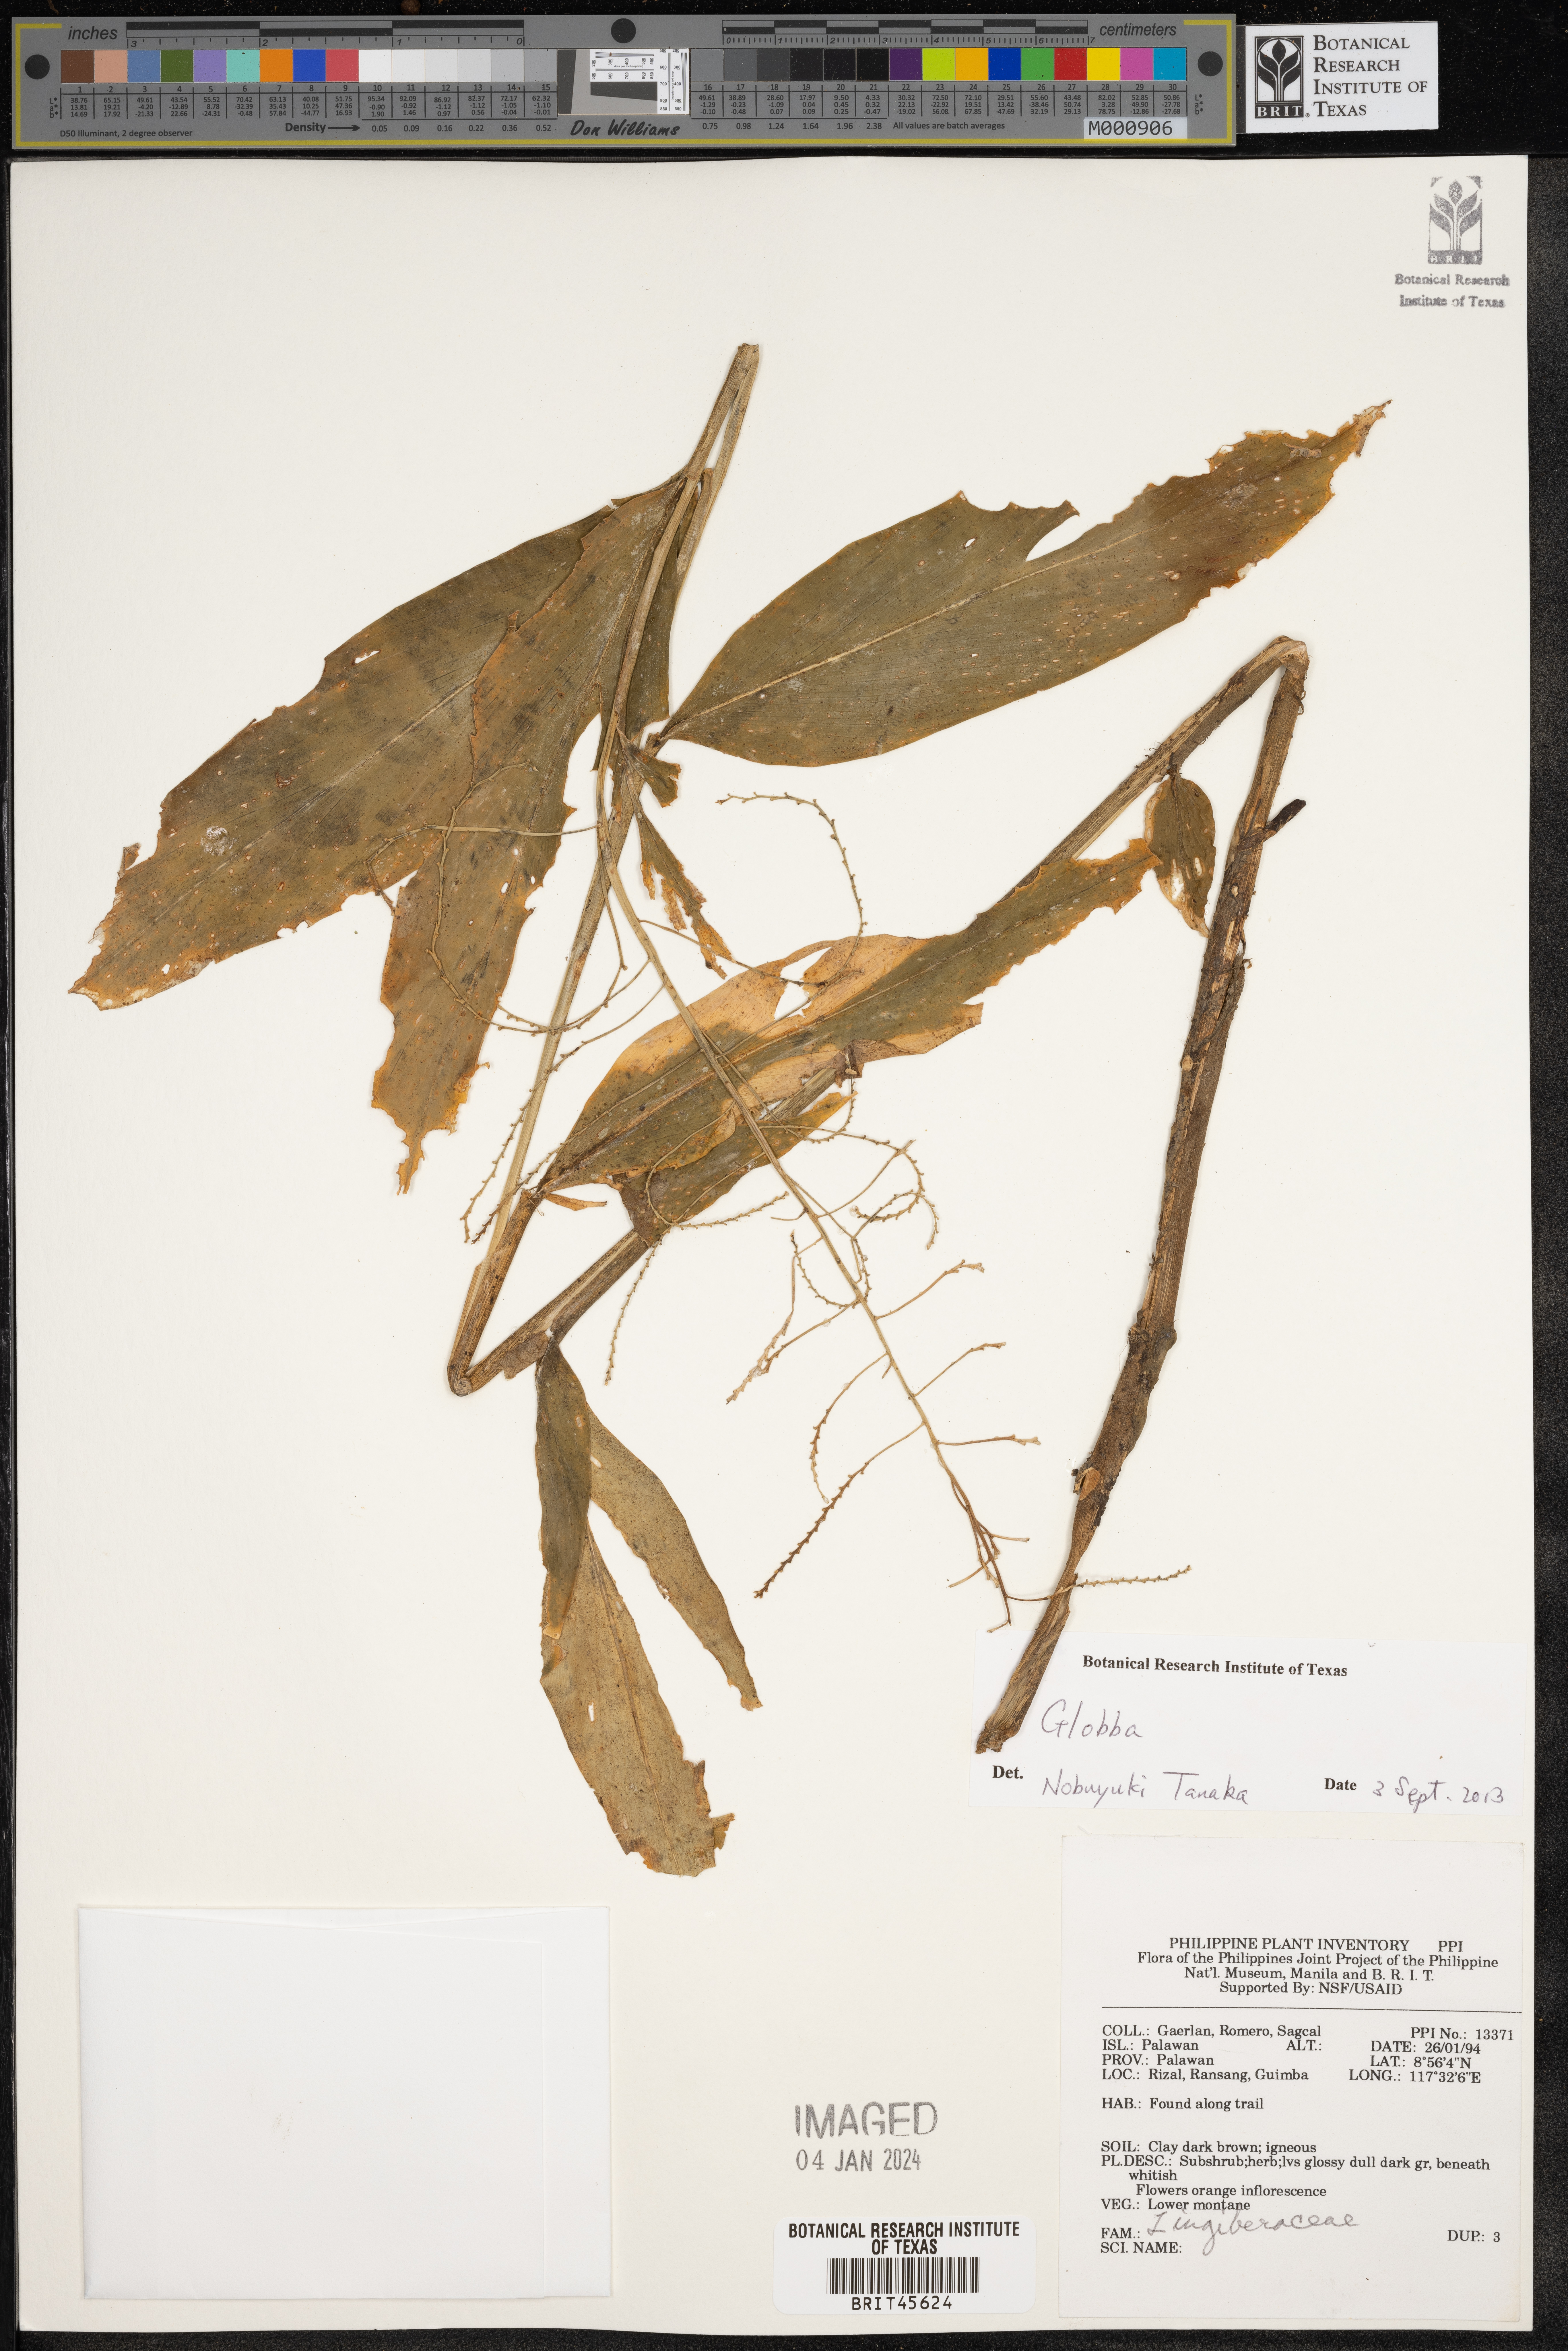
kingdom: Plantae
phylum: Tracheophyta
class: Liliopsida
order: Zingiberales
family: Zingiberaceae
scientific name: Zingiberaceae
